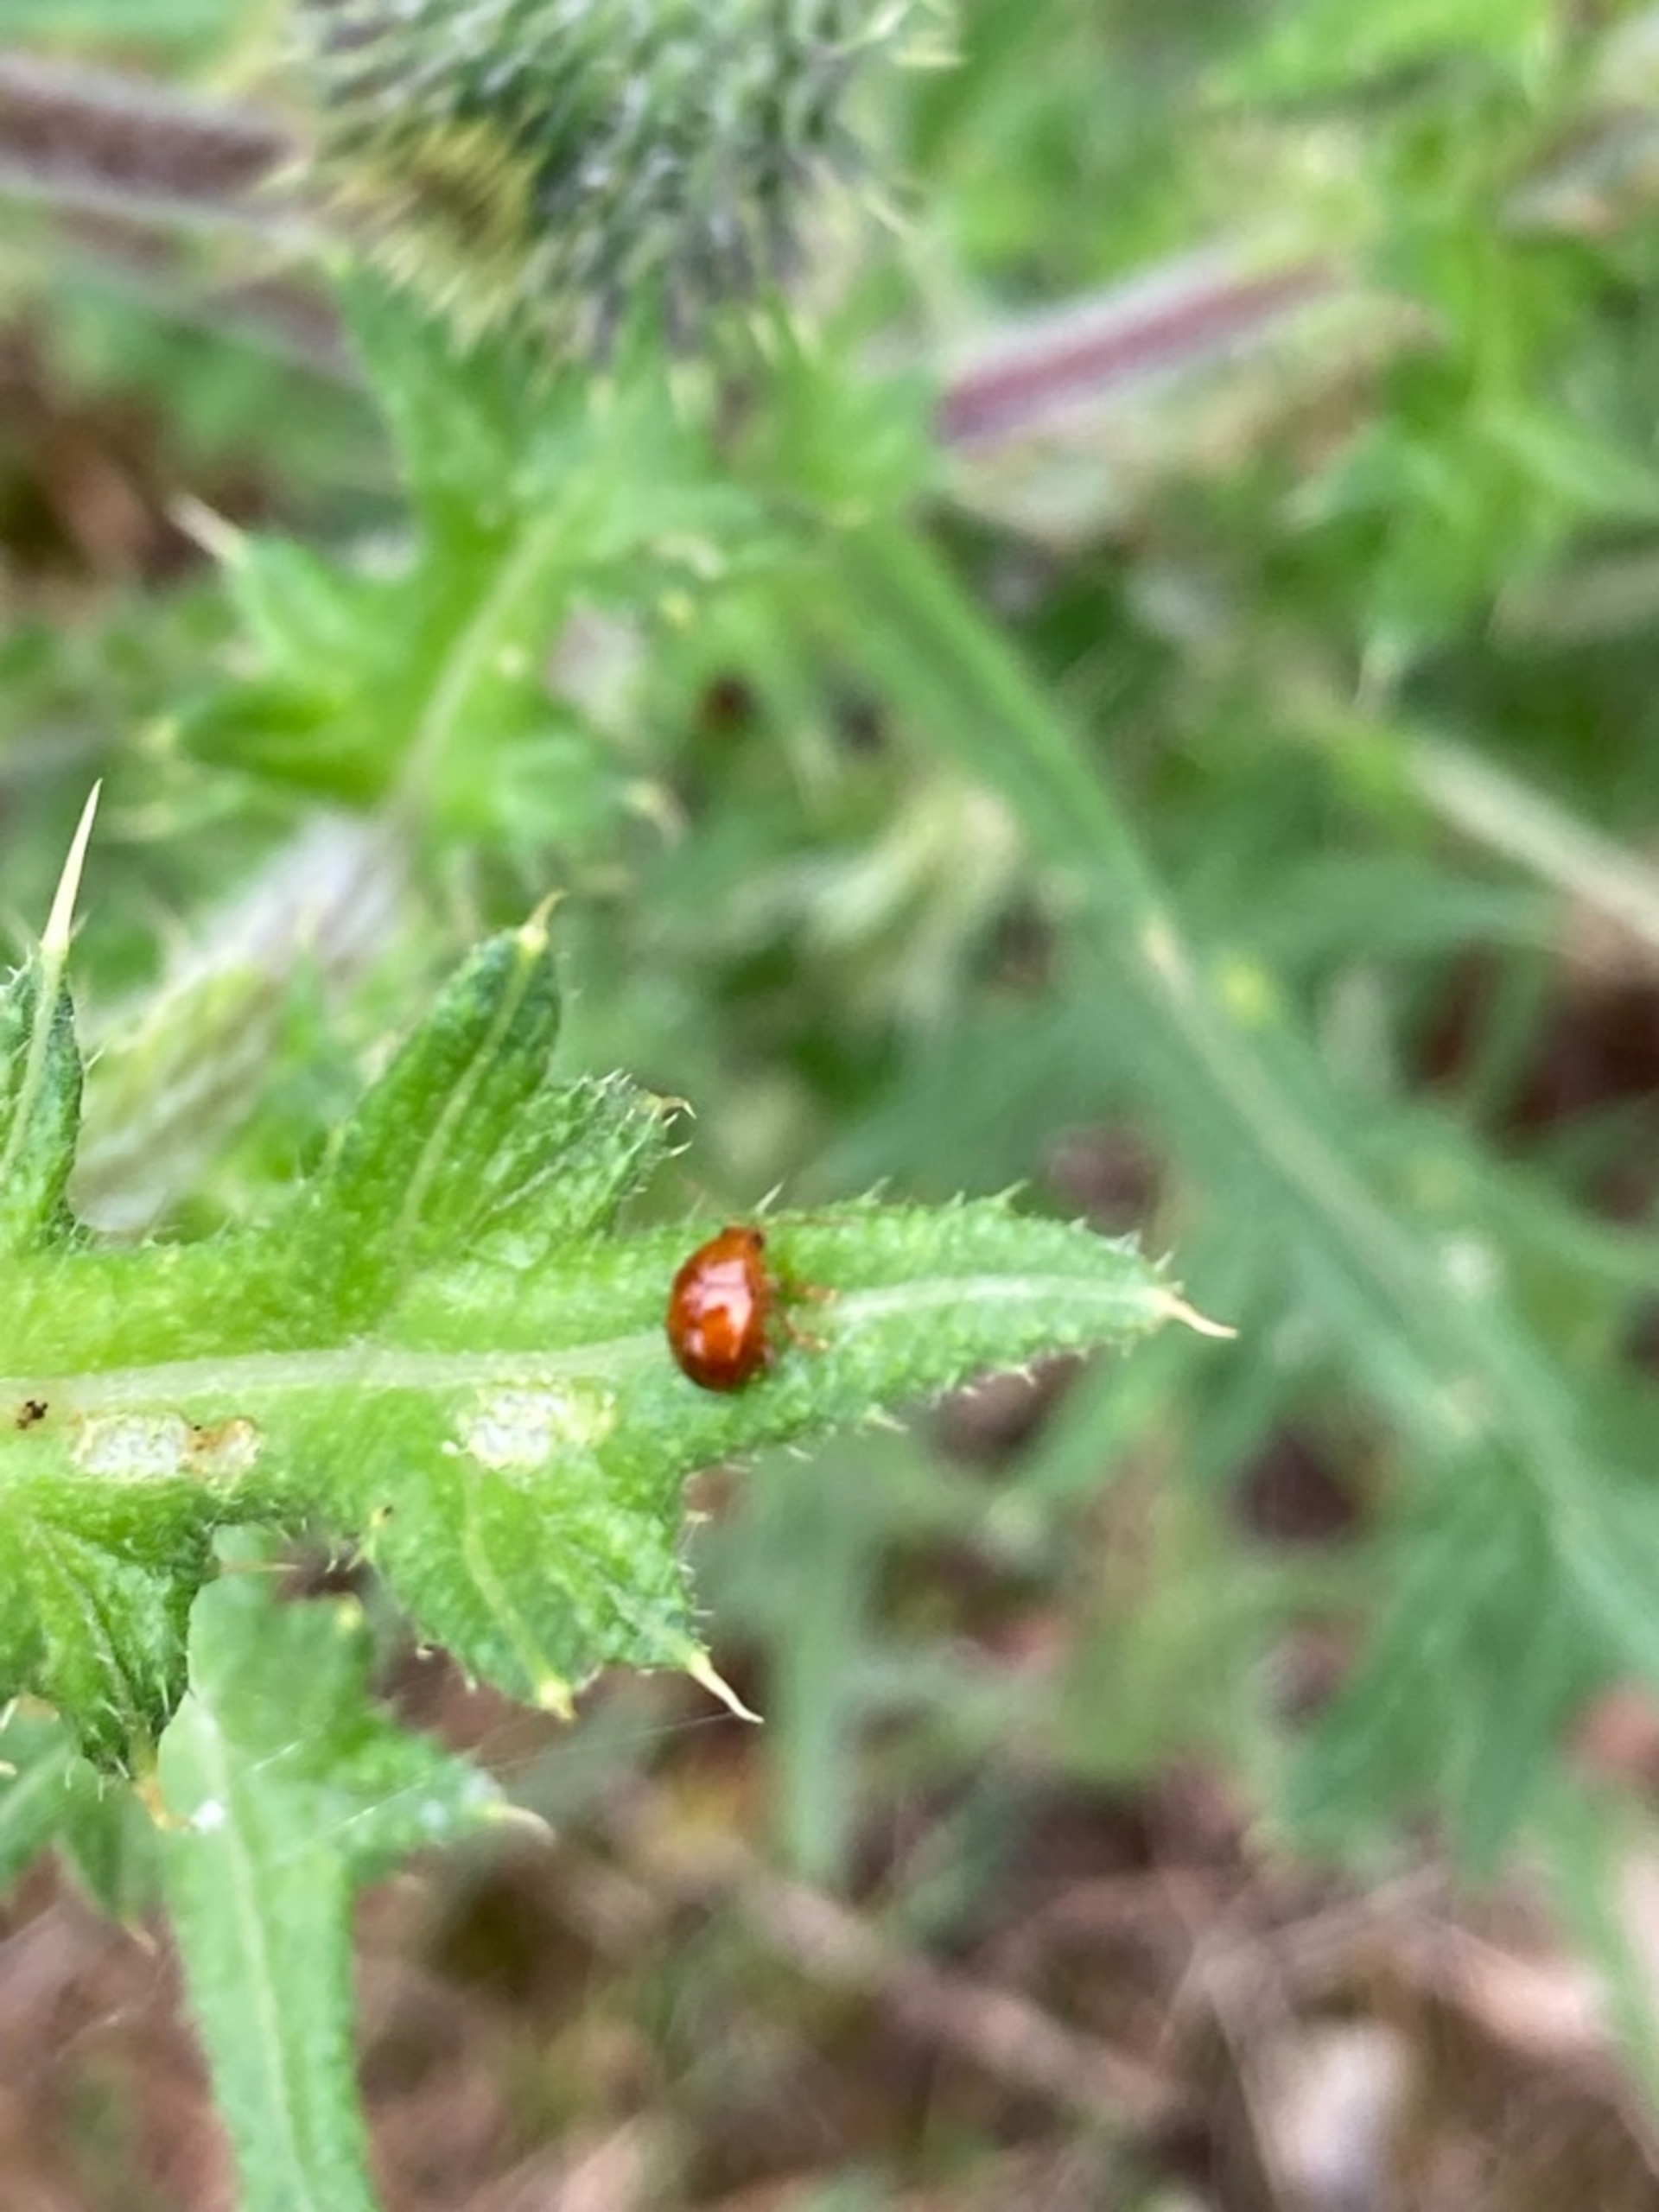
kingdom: Animalia
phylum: Arthropoda
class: Insecta
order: Coleoptera
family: Chrysomelidae
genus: Pistosia
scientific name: Pistosia testacea
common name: Tidselkuglebille
